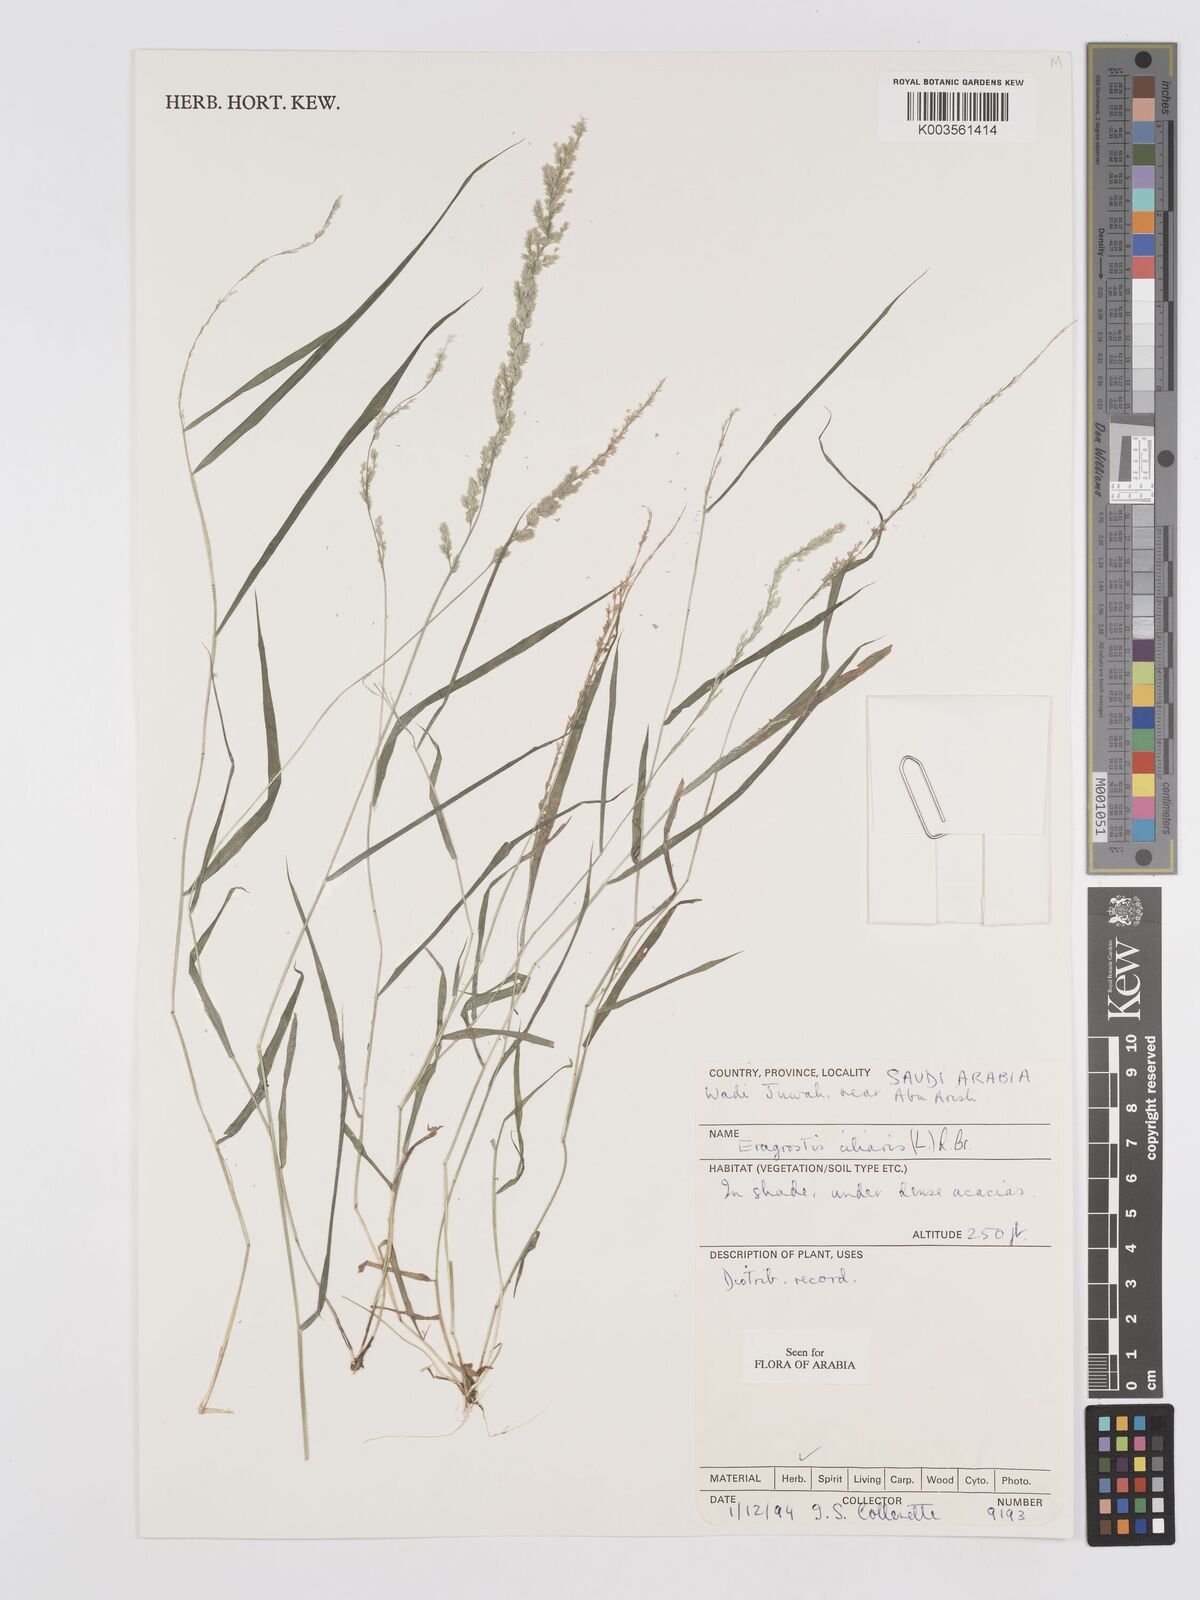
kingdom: Plantae
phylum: Tracheophyta
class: Liliopsida
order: Poales
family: Poaceae
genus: Eragrostis
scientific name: Eragrostis ciliaris
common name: Gophertail lovegrass
